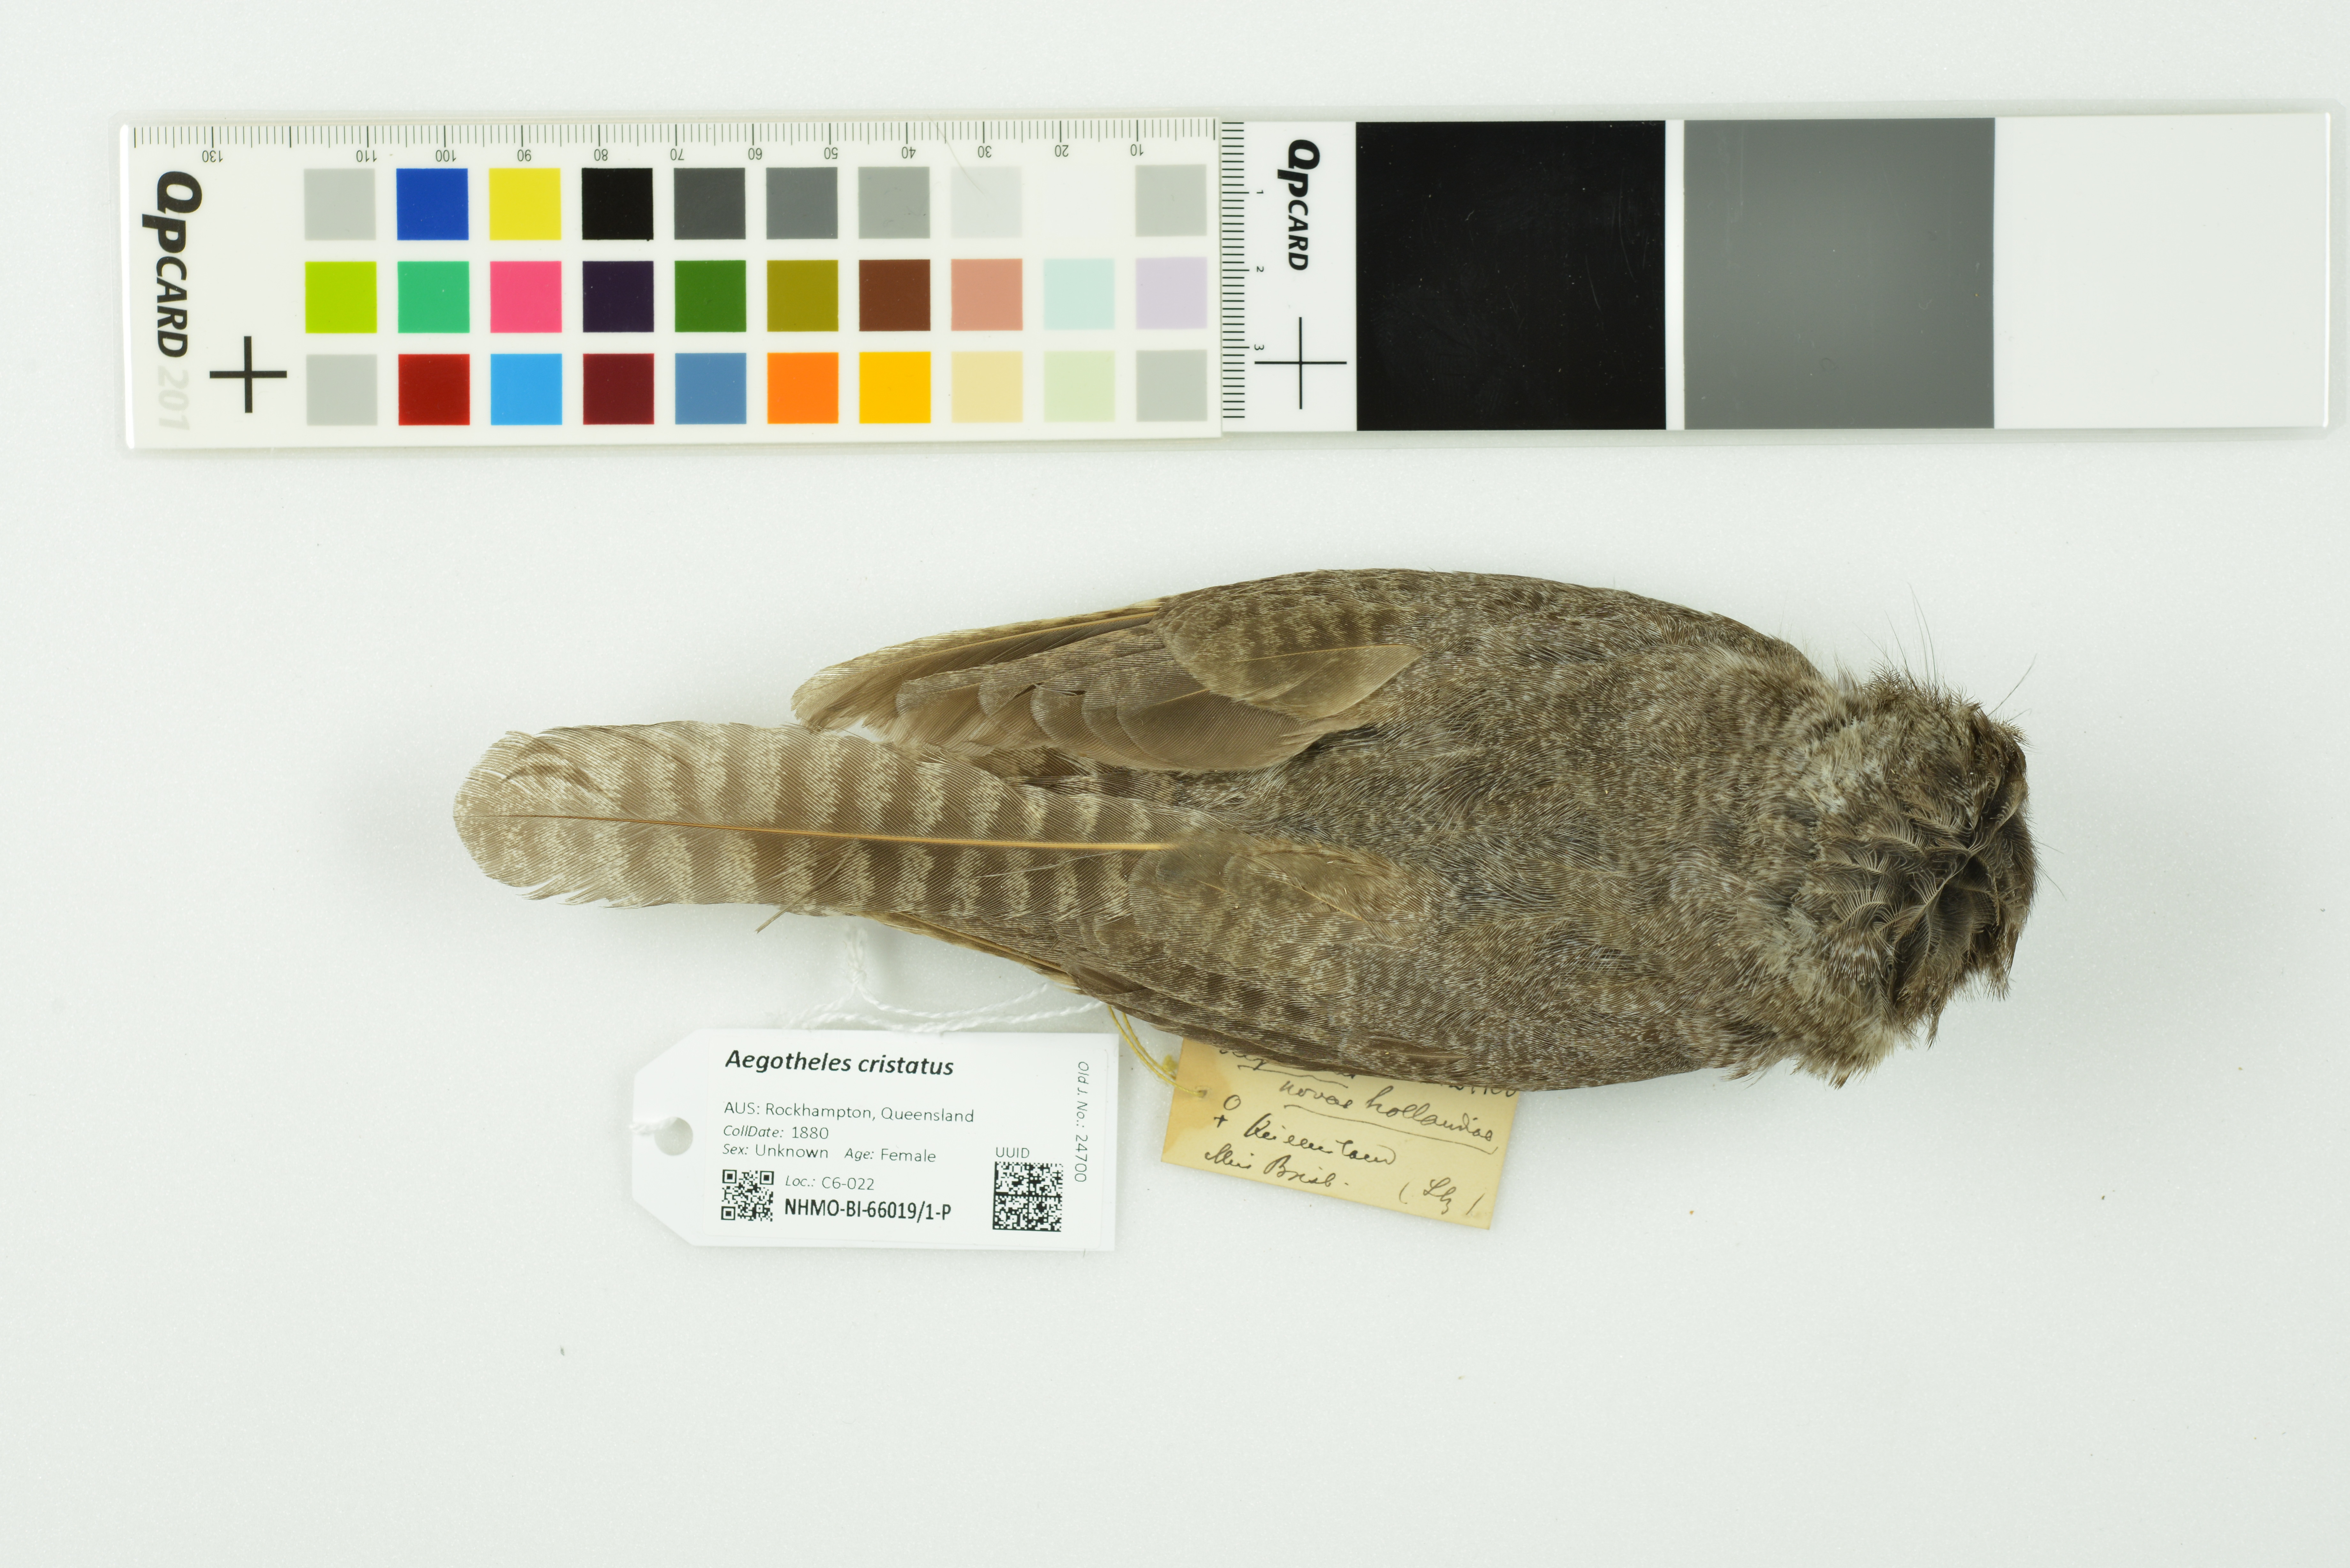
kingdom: Animalia
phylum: Chordata
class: Aves
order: Apodiformes
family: Aegothelidae
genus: Aegotheles
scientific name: Aegotheles cristatus
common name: Australian owlet-nightjar
